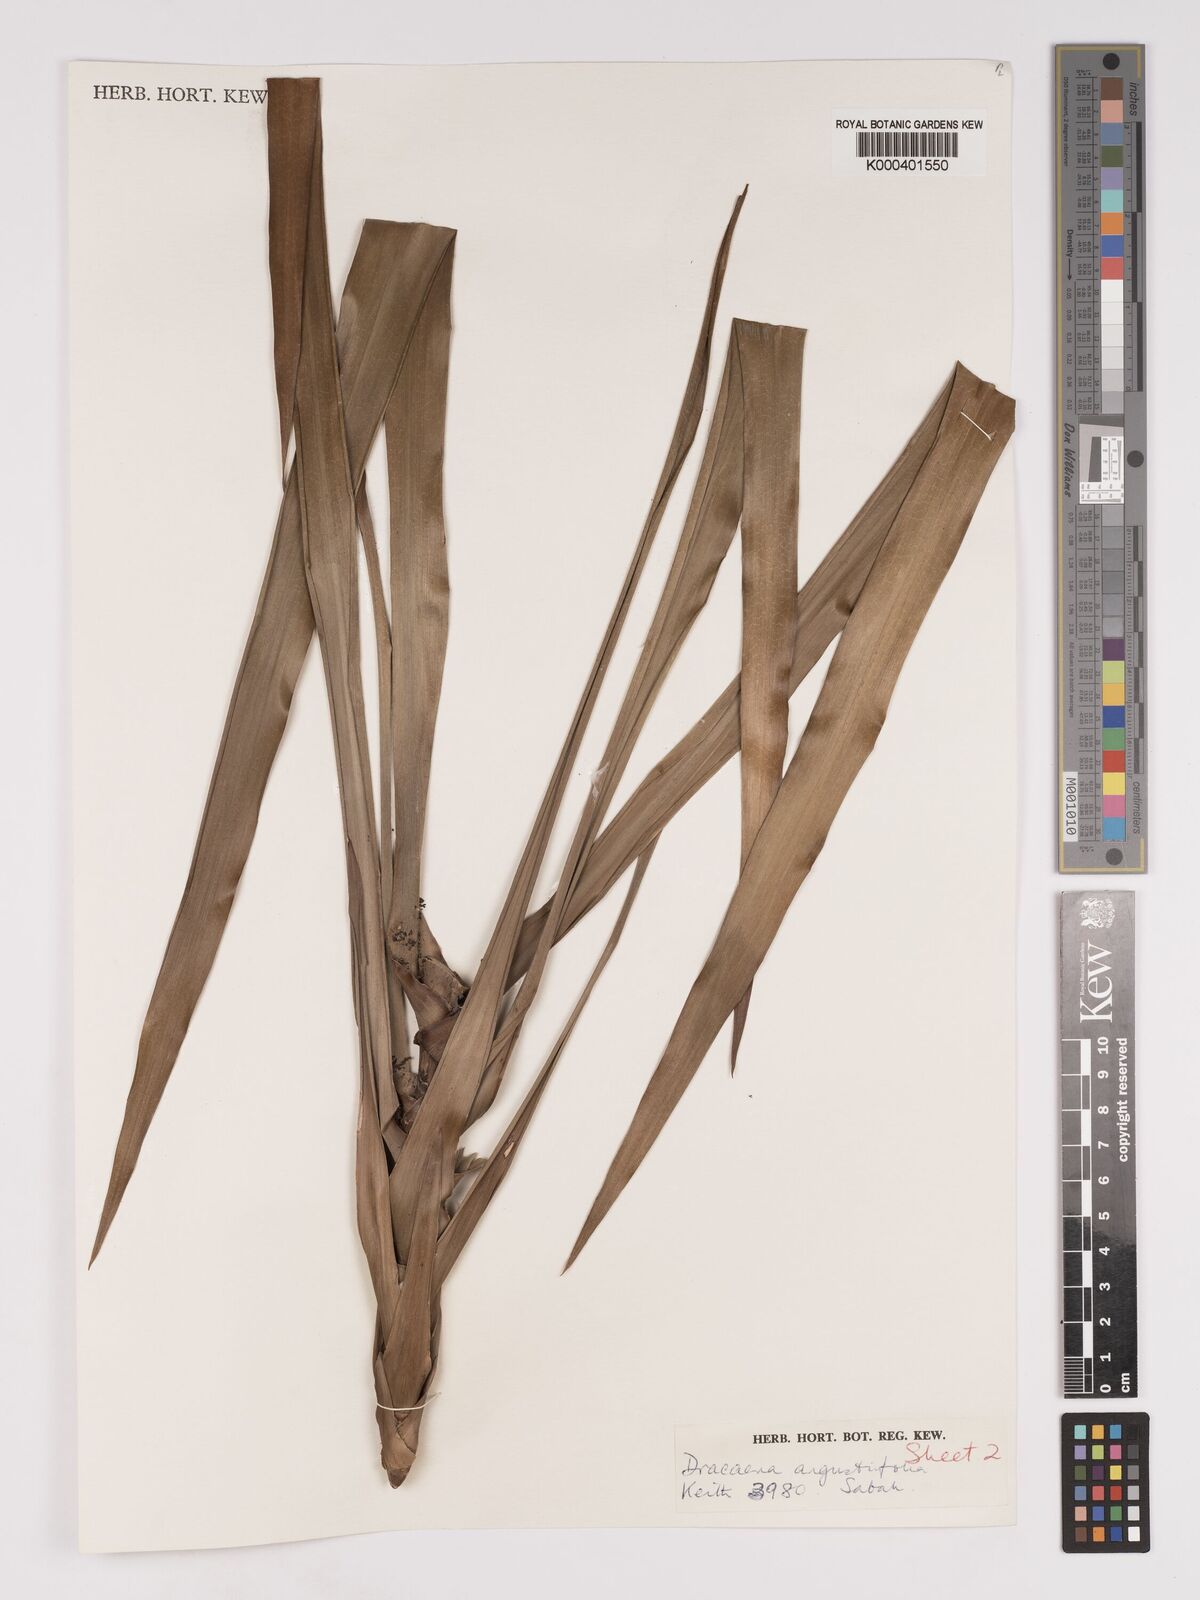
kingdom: Plantae
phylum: Tracheophyta
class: Liliopsida
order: Asparagales
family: Asparagaceae
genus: Dracaena
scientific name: Dracaena angustifolia
